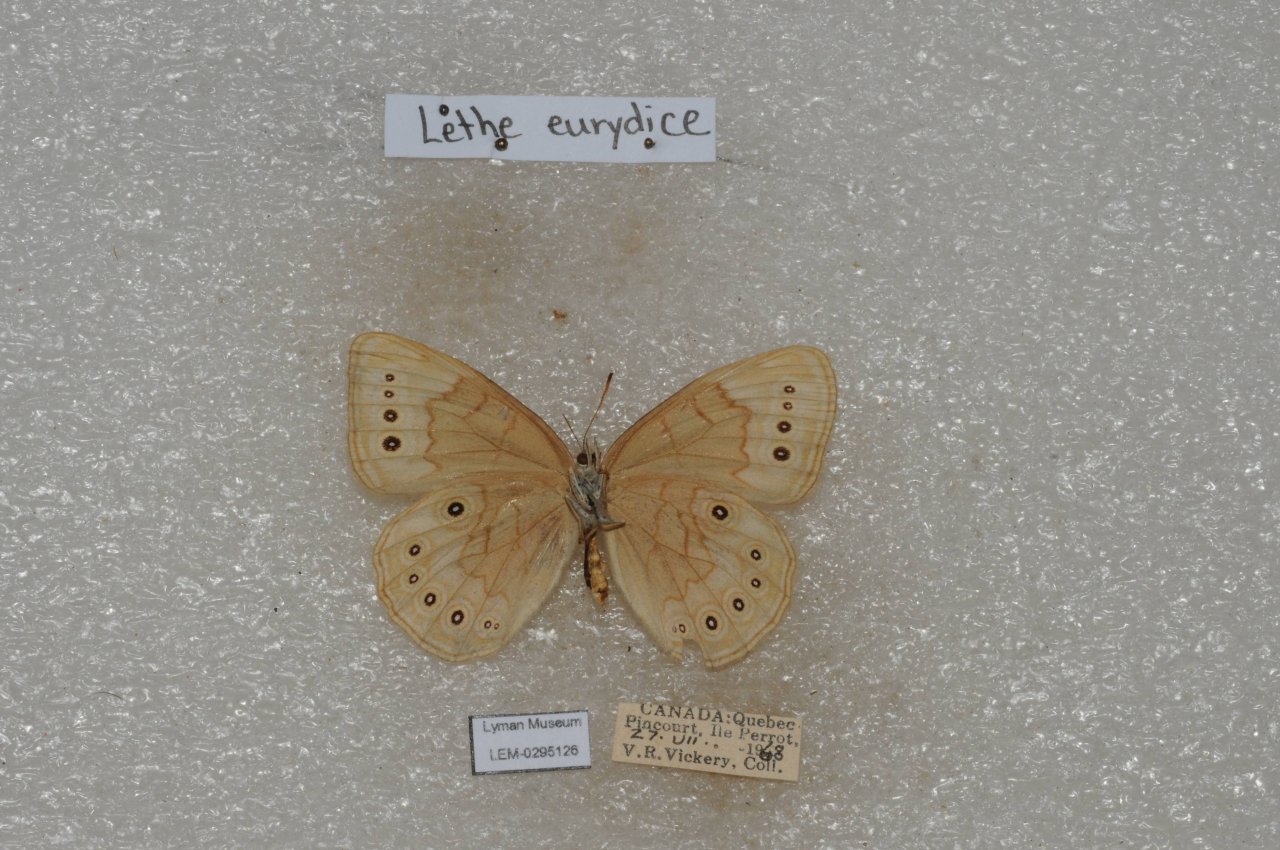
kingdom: Animalia
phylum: Arthropoda
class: Insecta
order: Lepidoptera
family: Nymphalidae
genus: Lethe
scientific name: Lethe eurydice
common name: Eyed Brown
